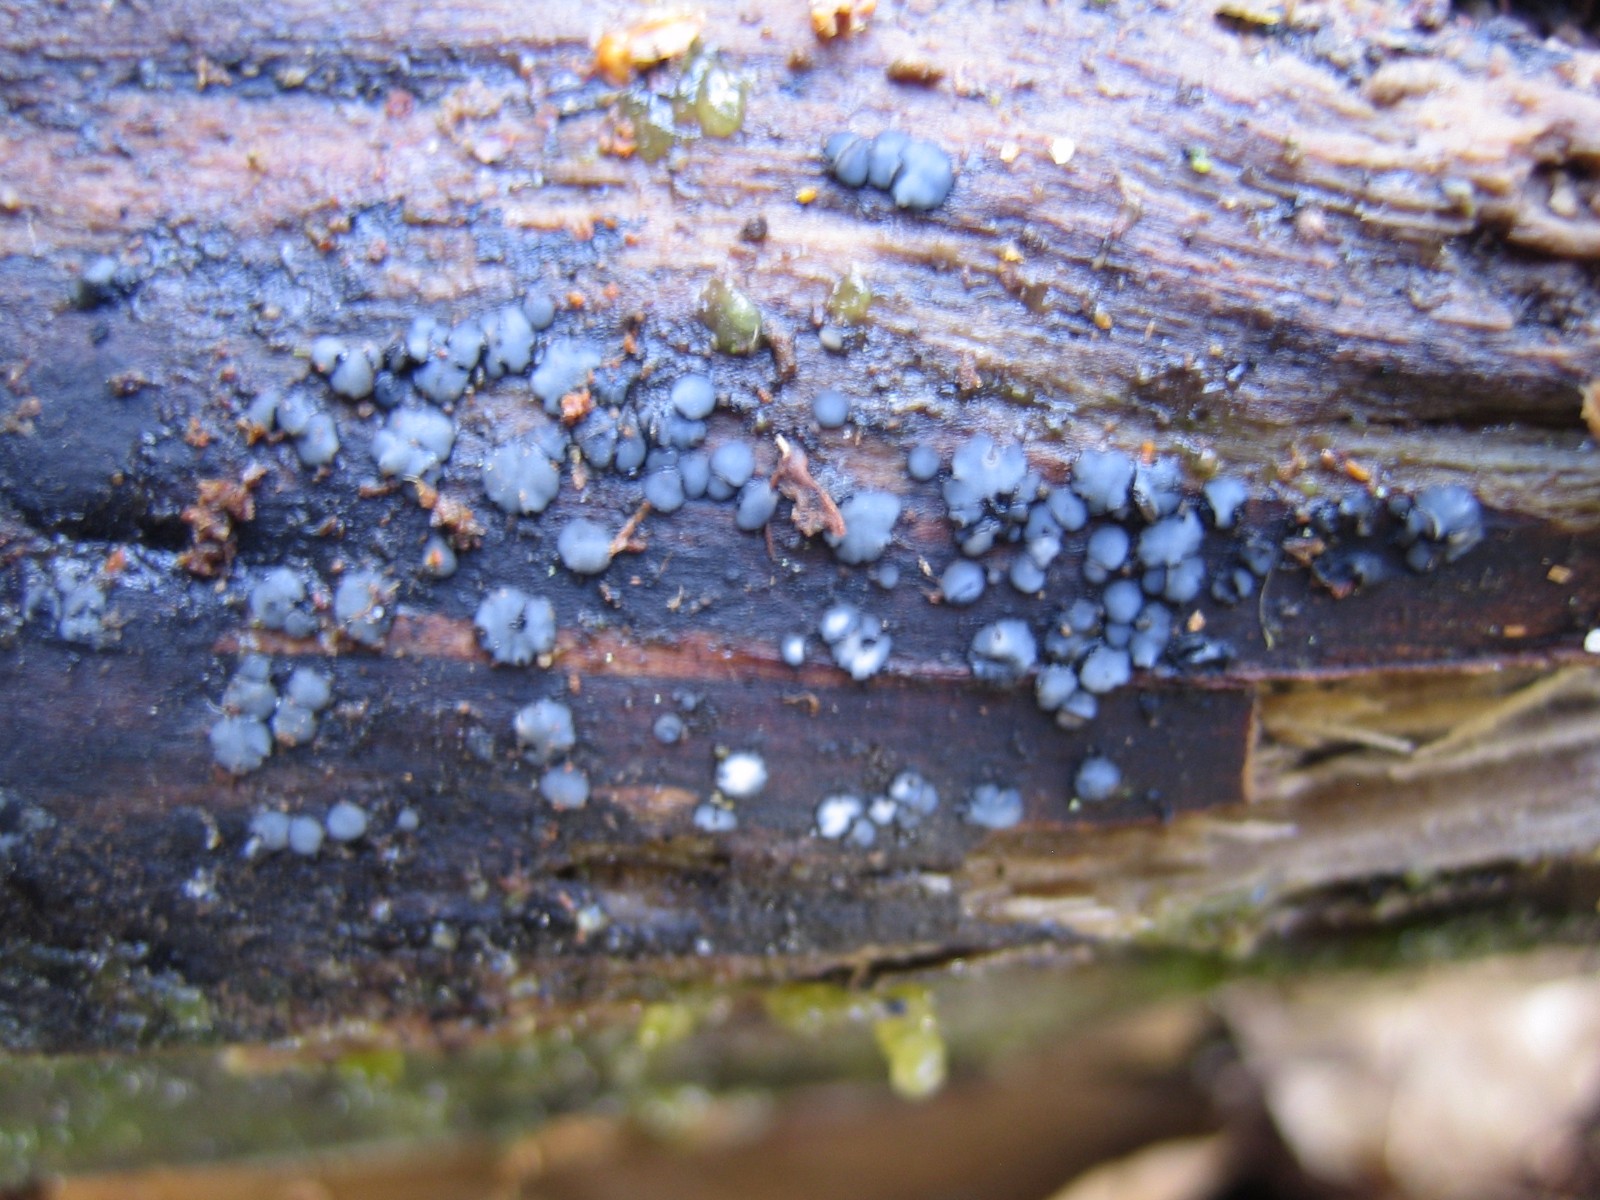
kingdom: Fungi
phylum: Ascomycota
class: Leotiomycetes
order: Helotiales
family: Mollisiaceae
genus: Mollisia
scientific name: Mollisia
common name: gråskive
